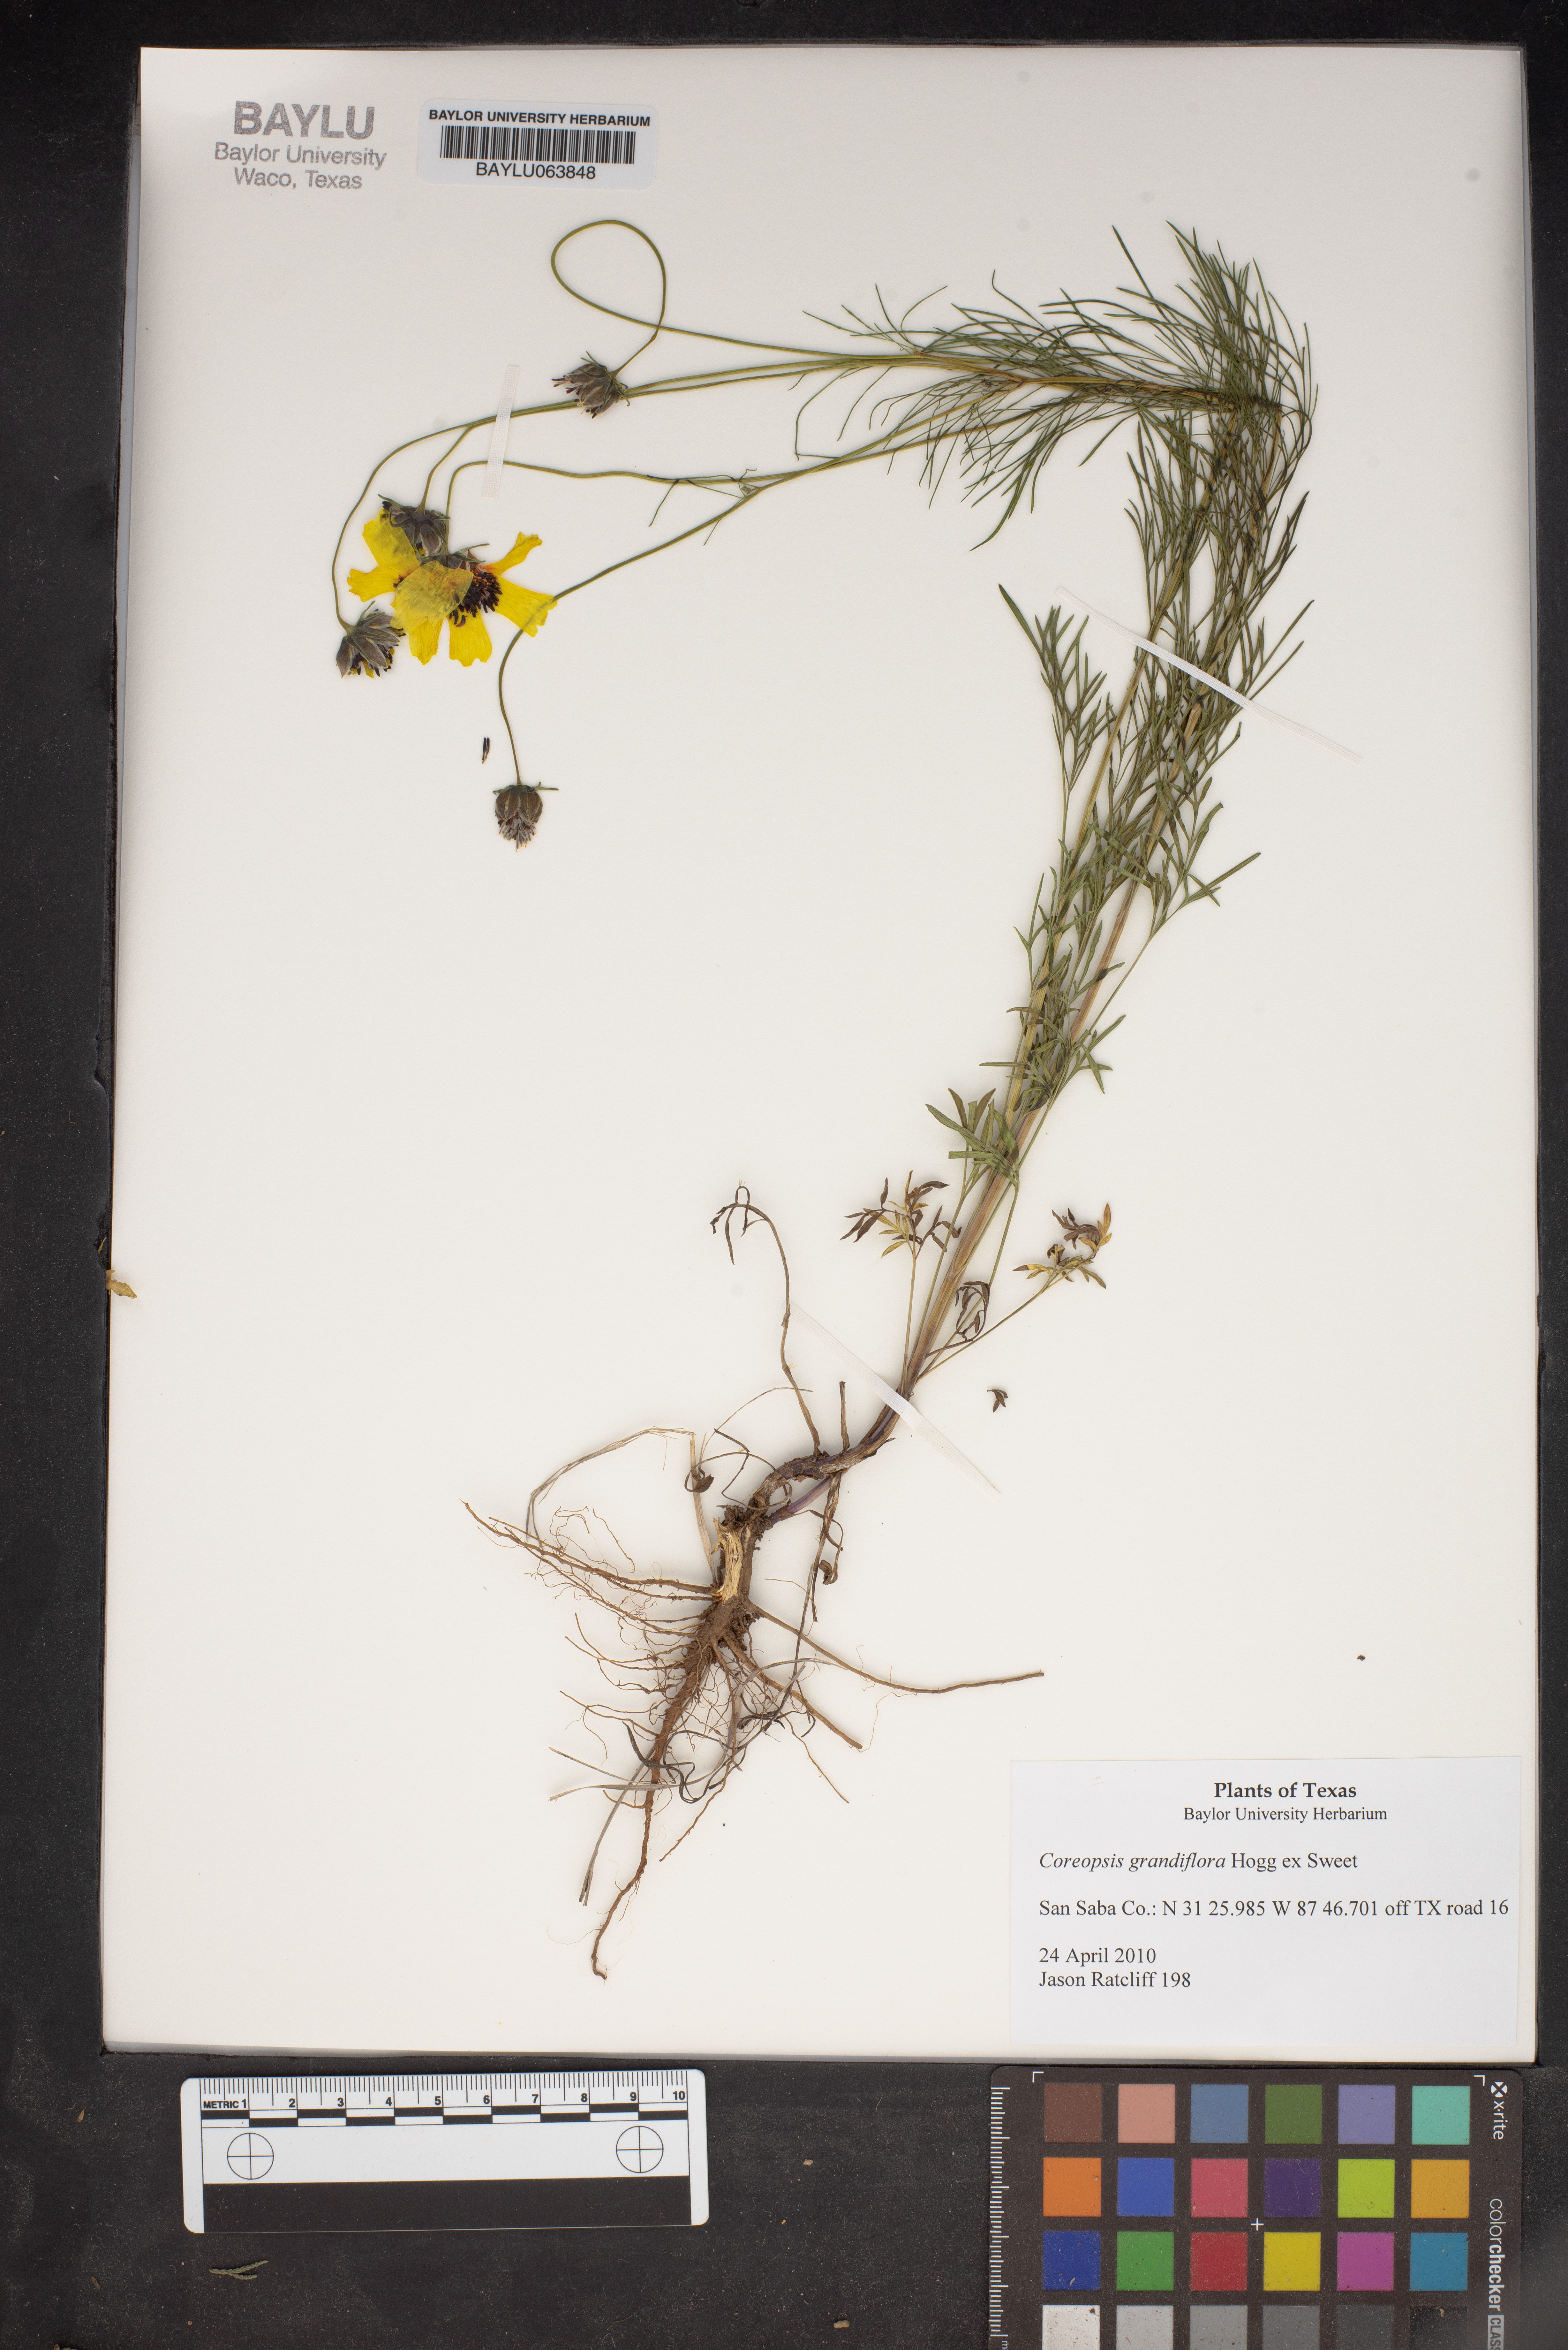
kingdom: Plantae
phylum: Tracheophyta
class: Magnoliopsida
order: Asterales
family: Asteraceae
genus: Coreopsis
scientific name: Coreopsis grandiflora
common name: Large-flowered tickseed
